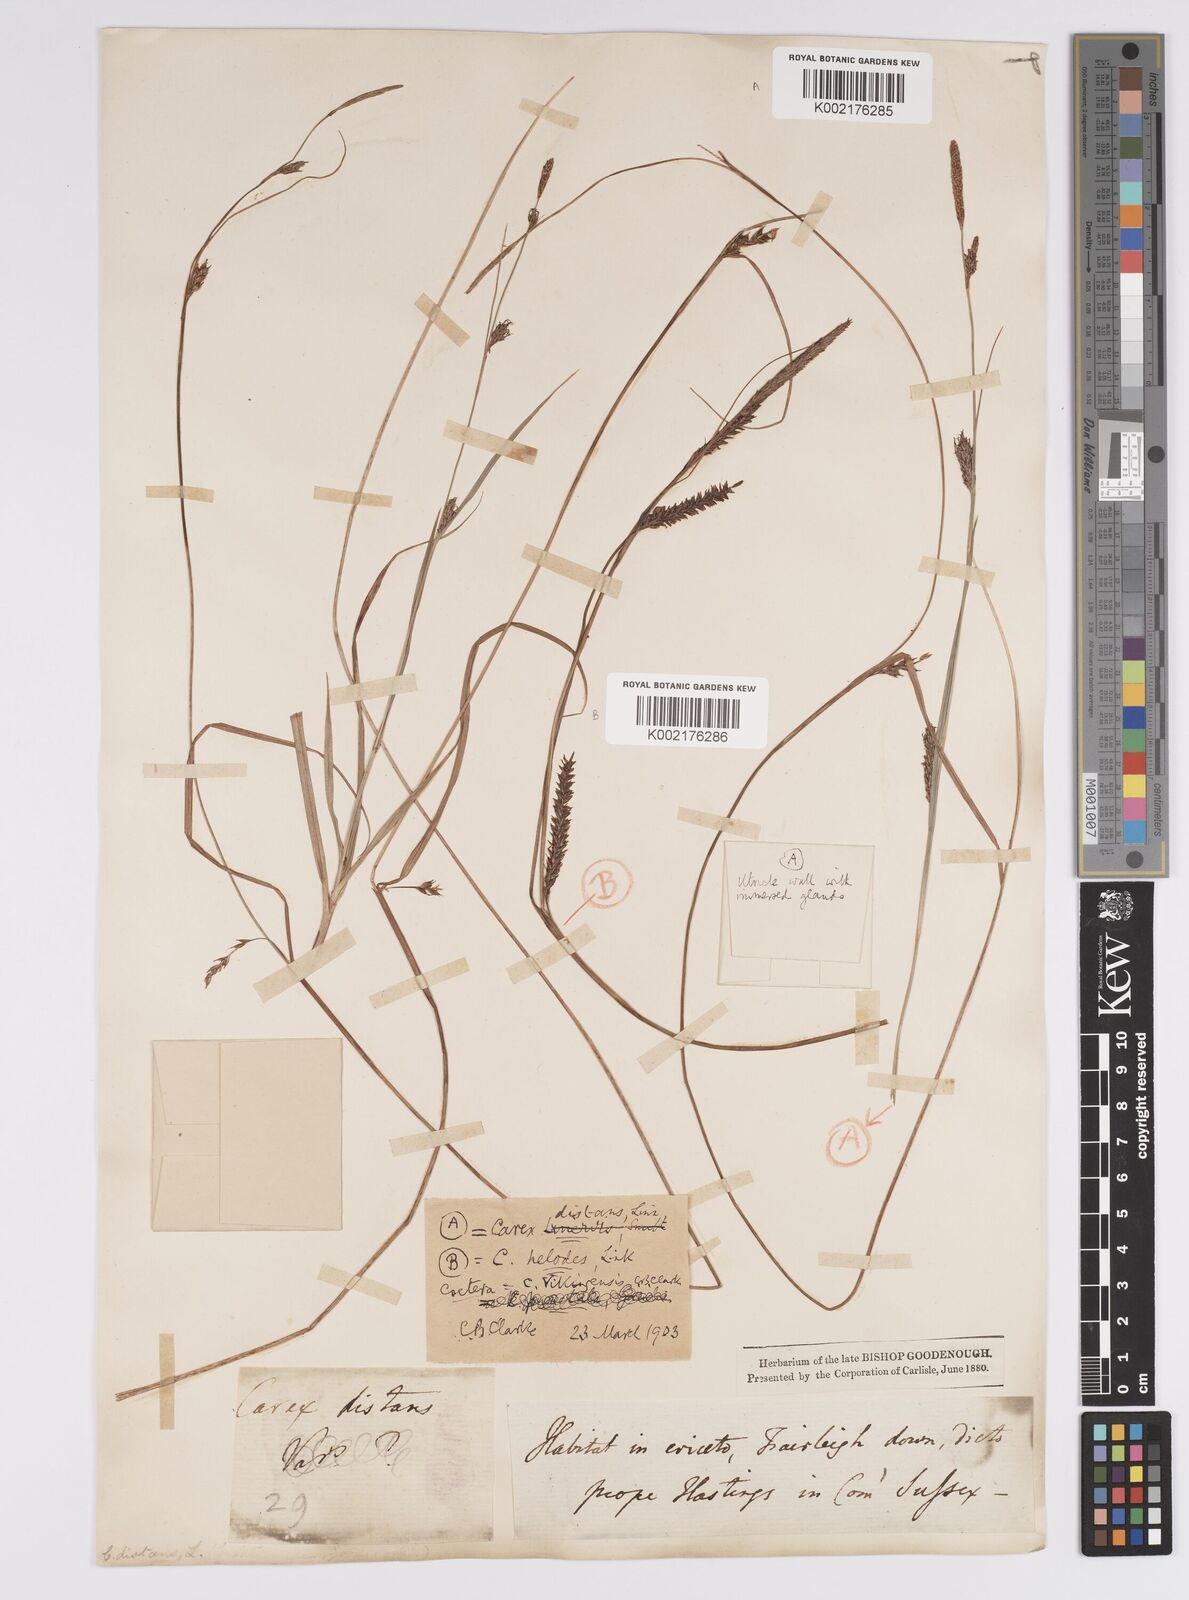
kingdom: Plantae
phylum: Tracheophyta
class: Liliopsida
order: Poales
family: Cyperaceae
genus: Carex
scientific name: Carex distans
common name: Distant sedge
